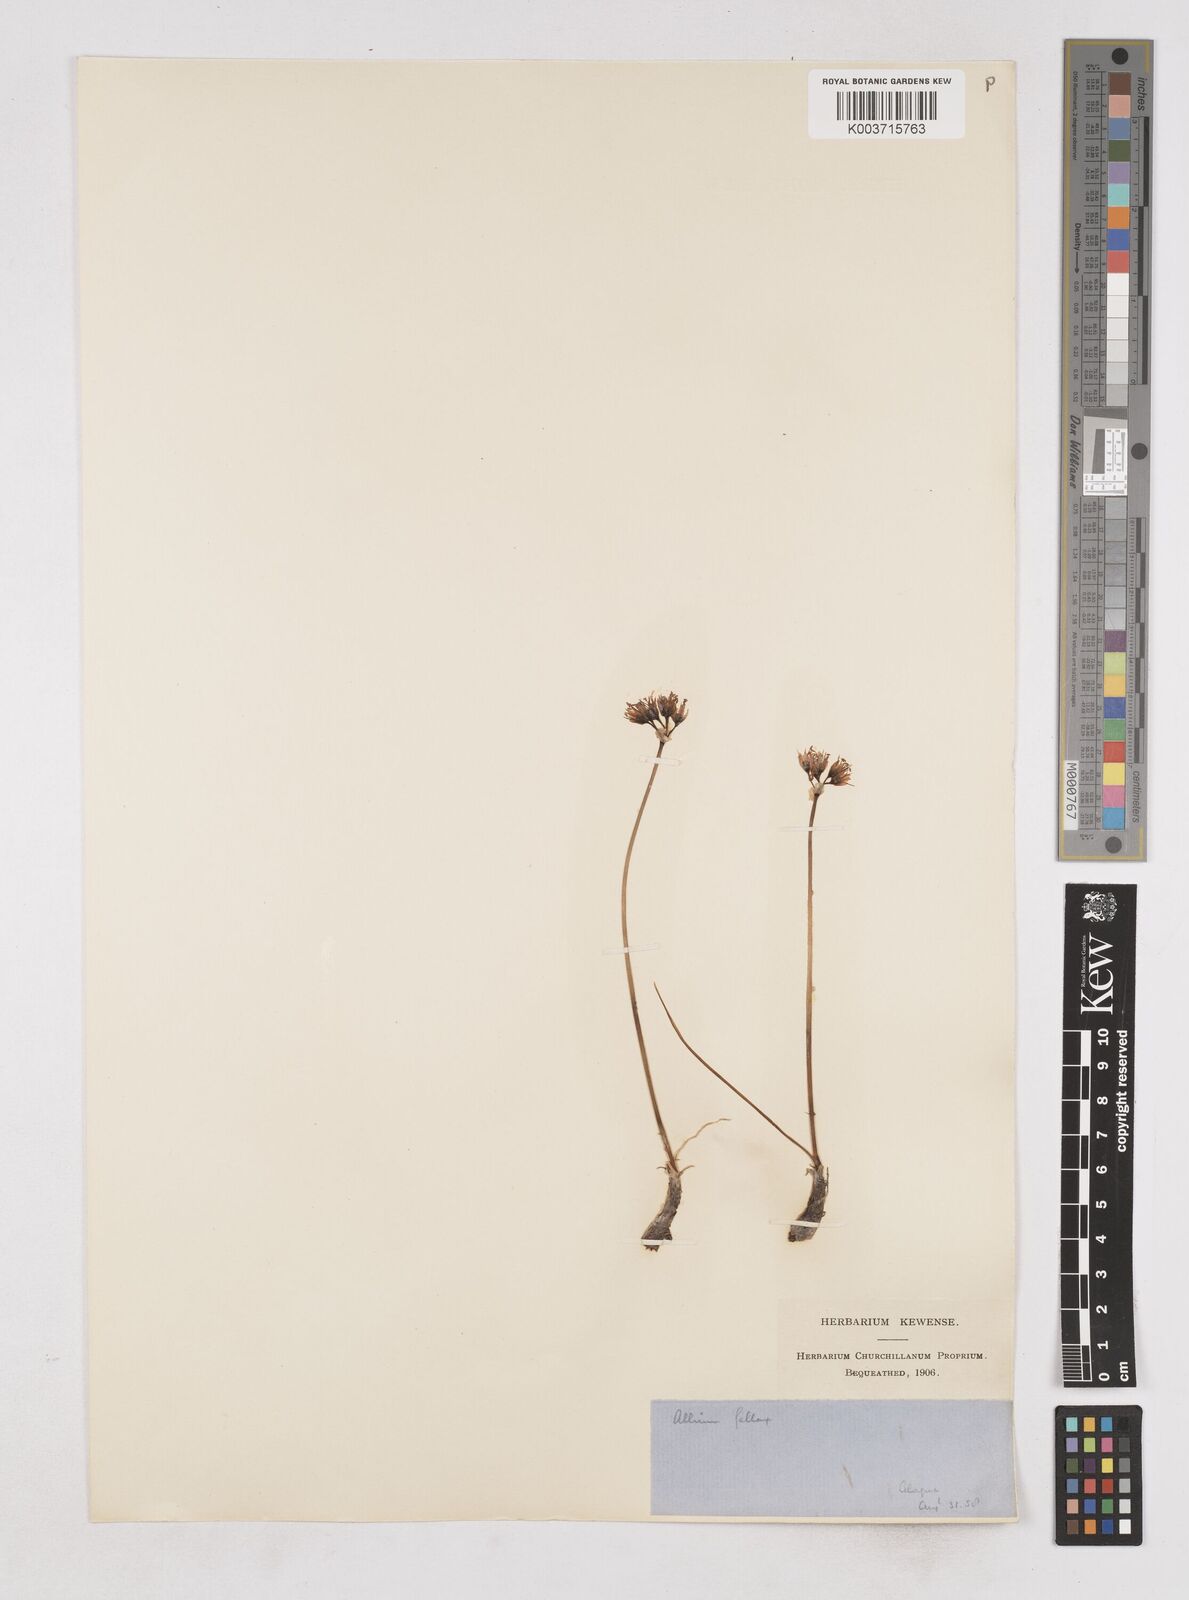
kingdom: Plantae
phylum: Tracheophyta
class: Liliopsida
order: Asparagales
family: Amaryllidaceae
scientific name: Amaryllidaceae
